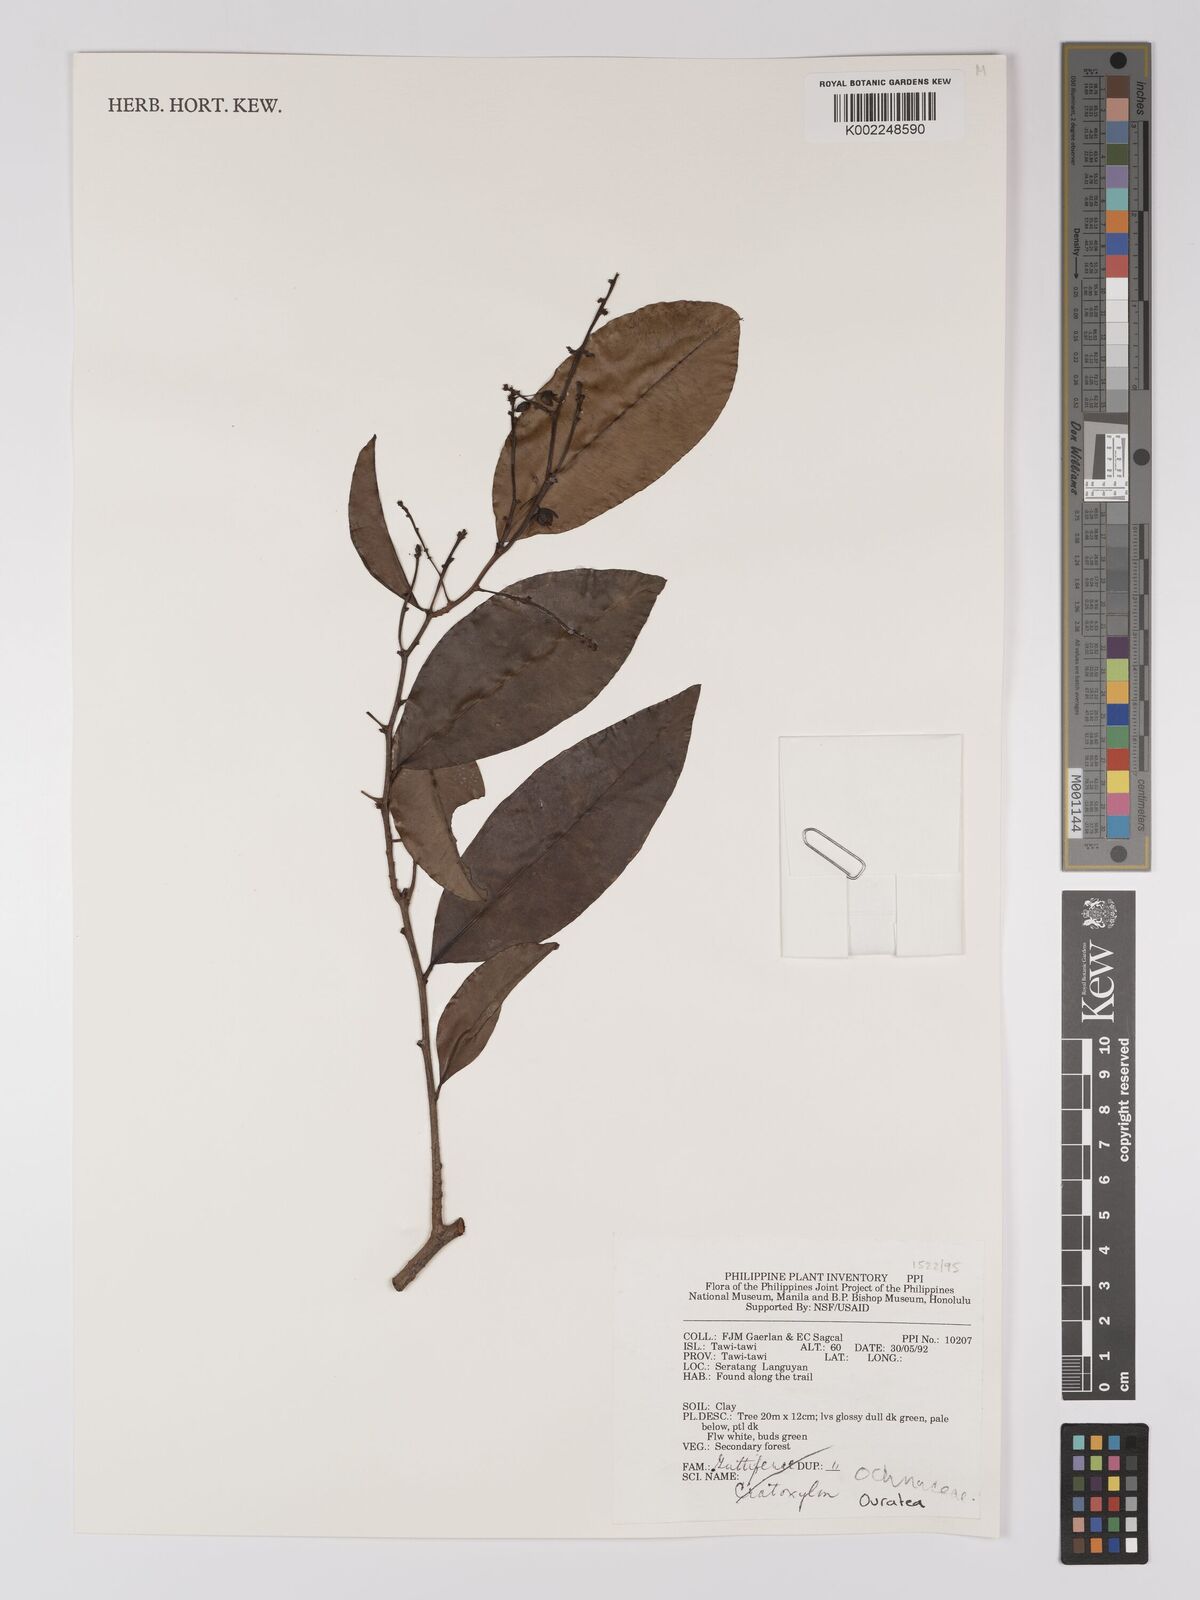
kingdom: Plantae
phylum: Tracheophyta
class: Magnoliopsida
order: Malpighiales
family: Ochnaceae
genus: Gomphia
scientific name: Gomphia serrata
